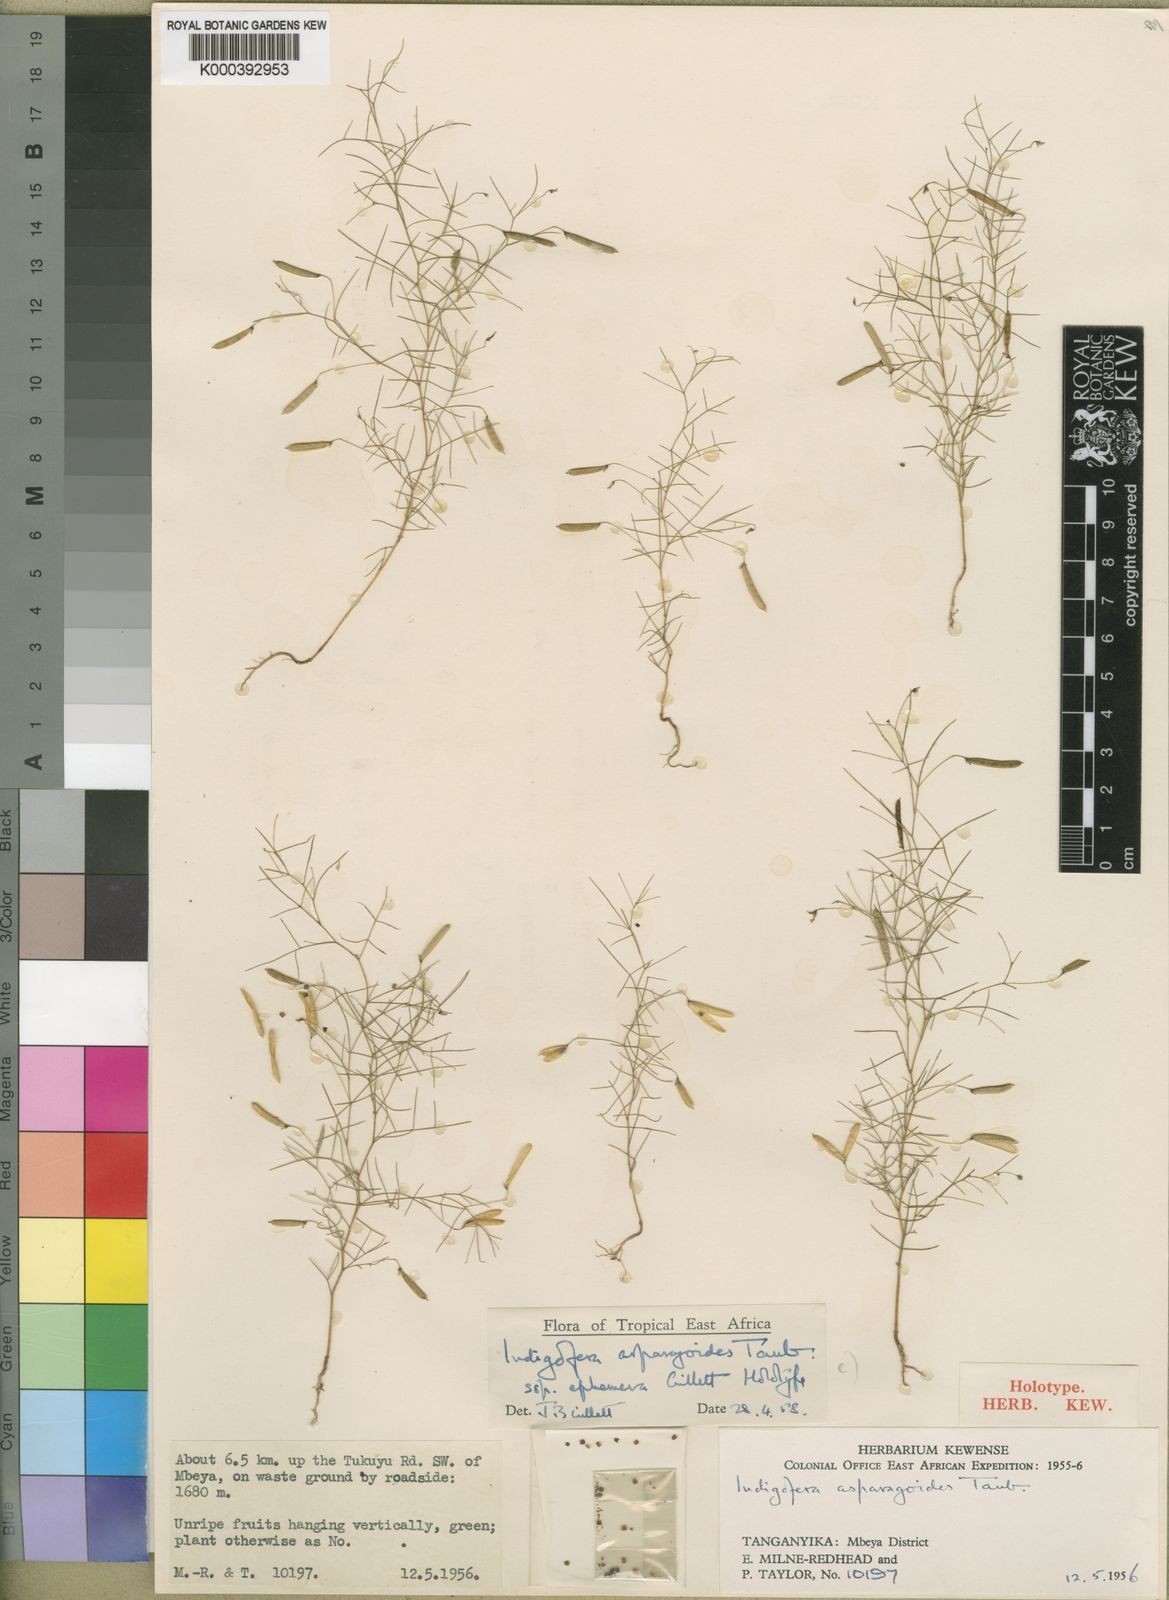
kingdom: Plantae
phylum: Tracheophyta
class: Magnoliopsida
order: Fabales
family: Fabaceae
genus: Microcharis
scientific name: Microcharis asparagoides
